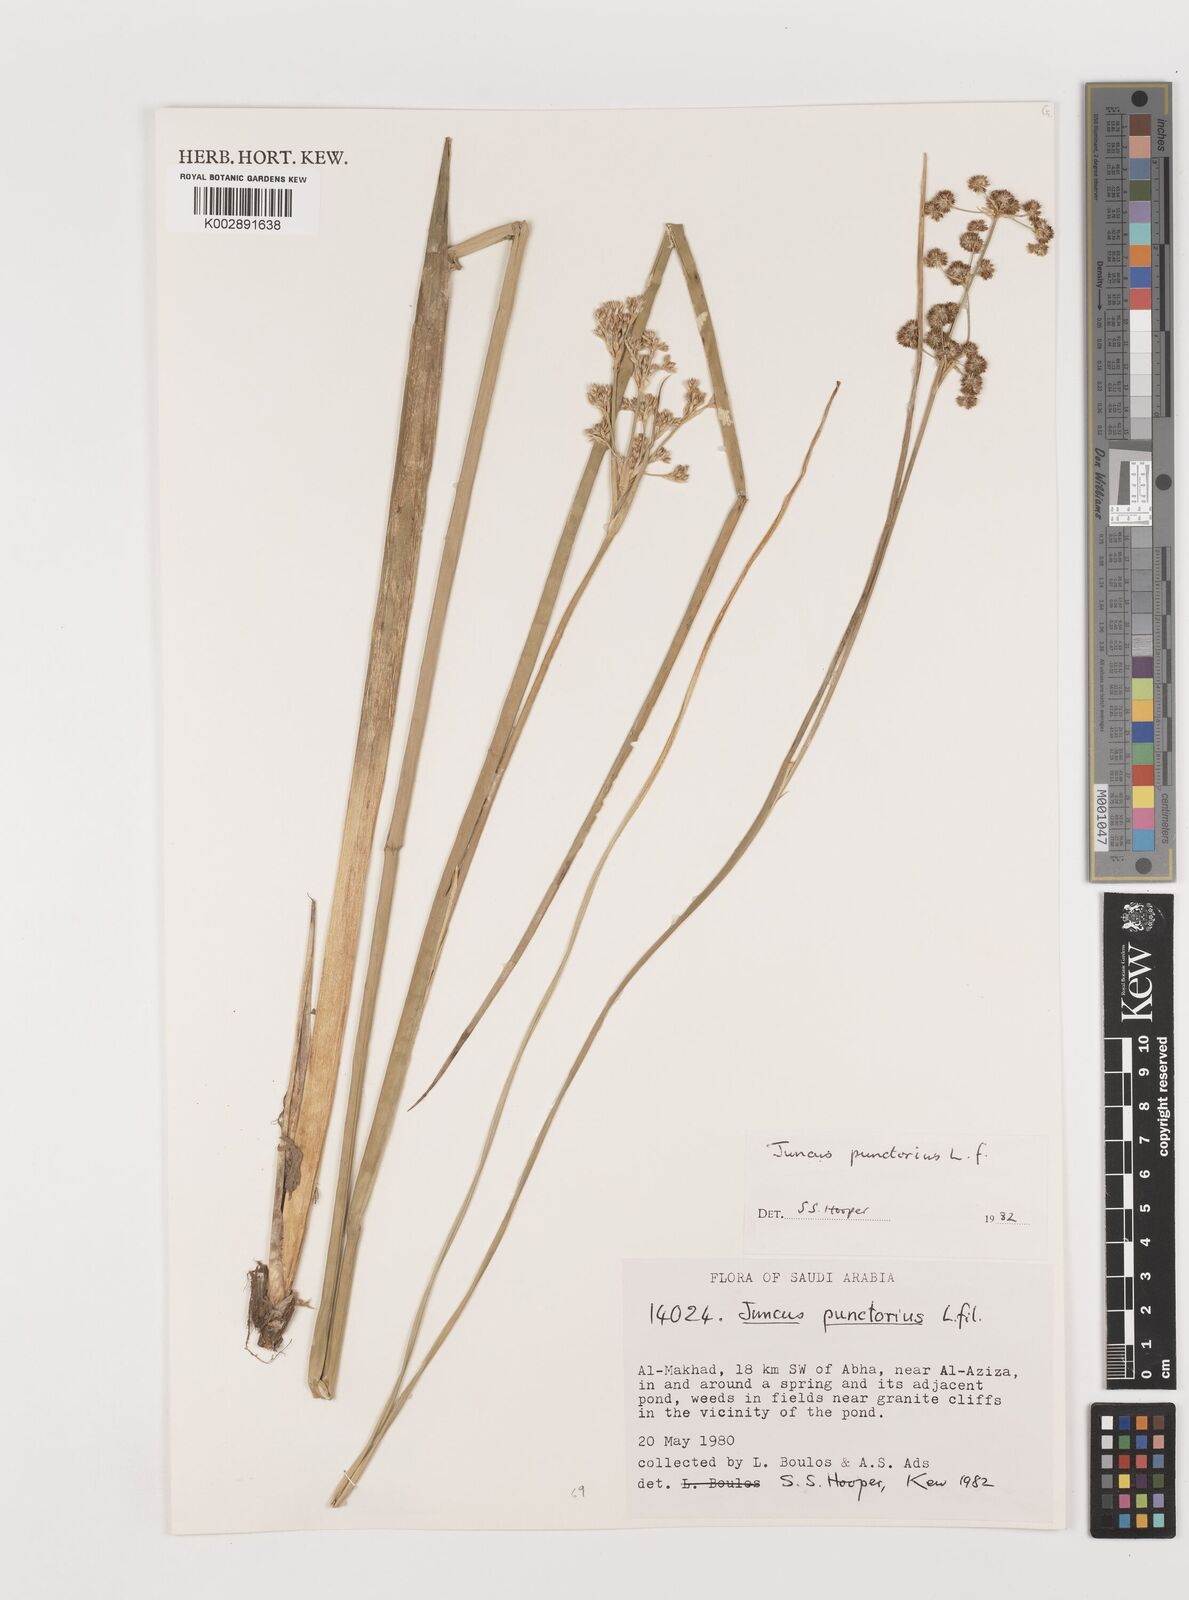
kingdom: Plantae
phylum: Tracheophyta
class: Liliopsida
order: Poales
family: Juncaceae
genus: Juncus
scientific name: Juncus punctorius
